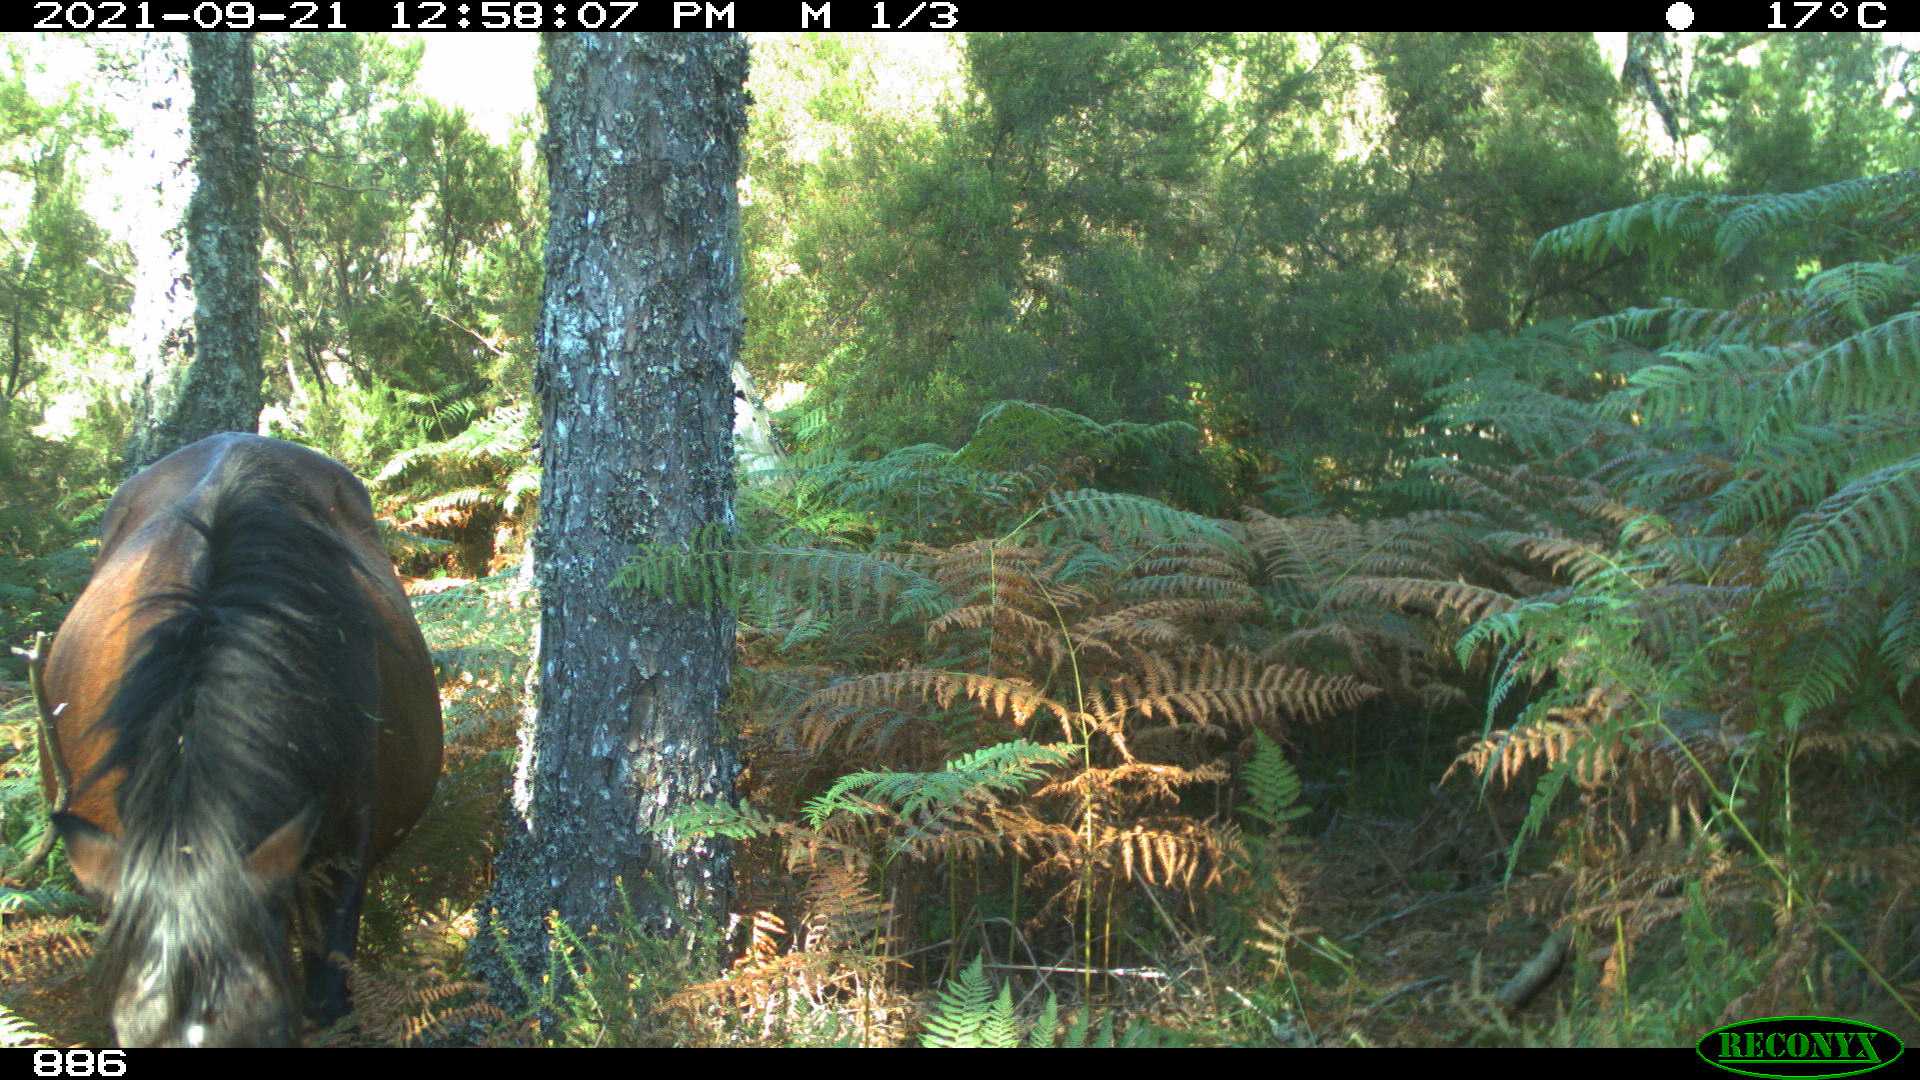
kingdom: Animalia
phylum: Chordata
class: Mammalia
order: Perissodactyla
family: Equidae
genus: Equus
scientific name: Equus caballus
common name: Horse
